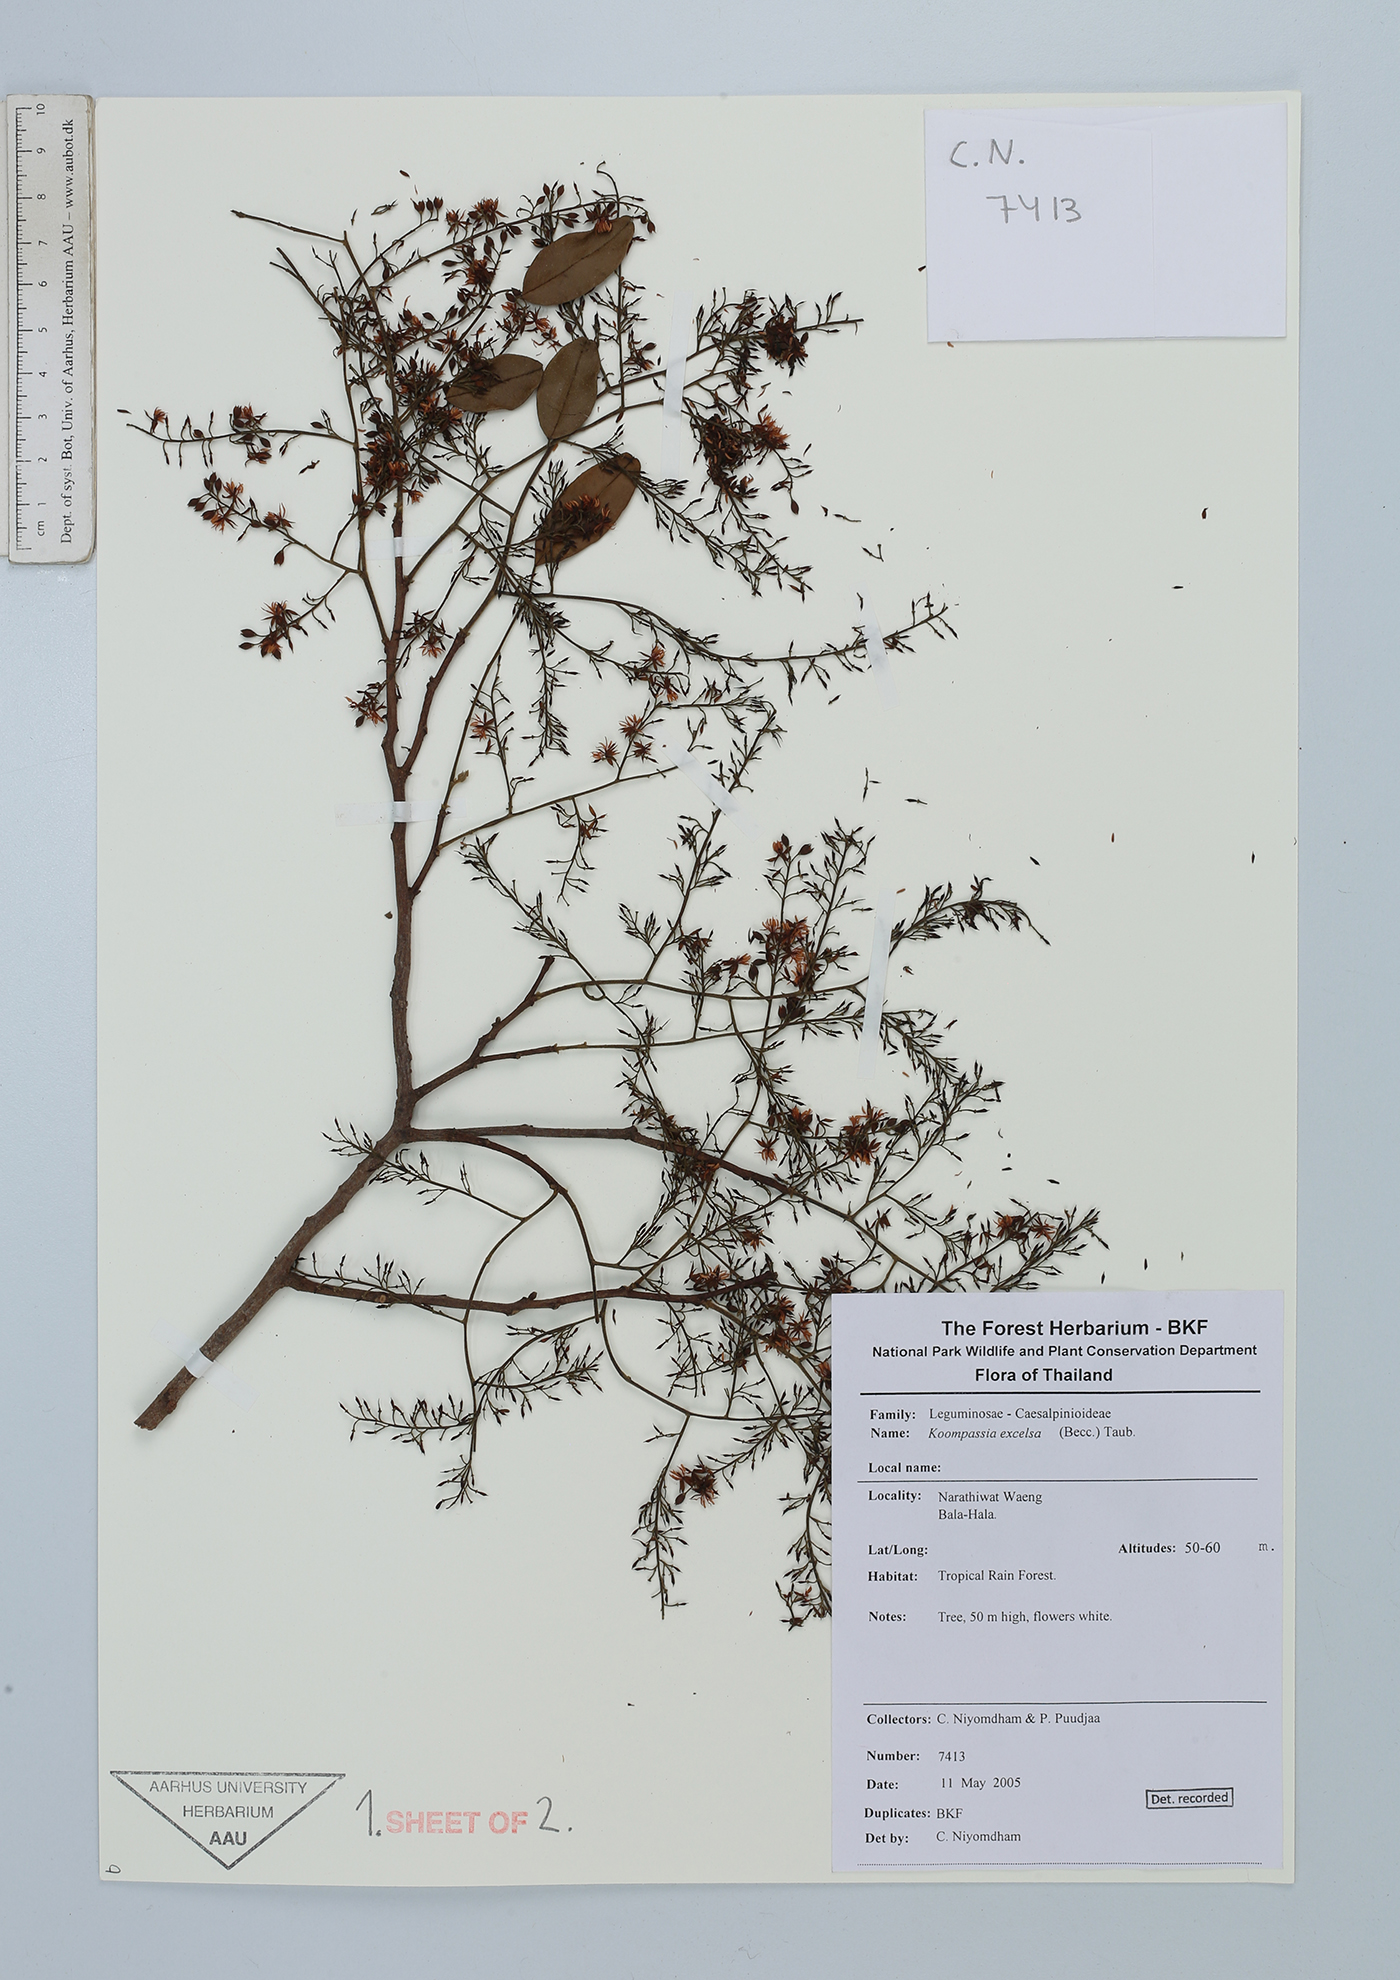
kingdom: Plantae
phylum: Tracheophyta
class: Magnoliopsida
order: Fabales
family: Fabaceae
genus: Koompassia
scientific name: Koompassia excelsa
